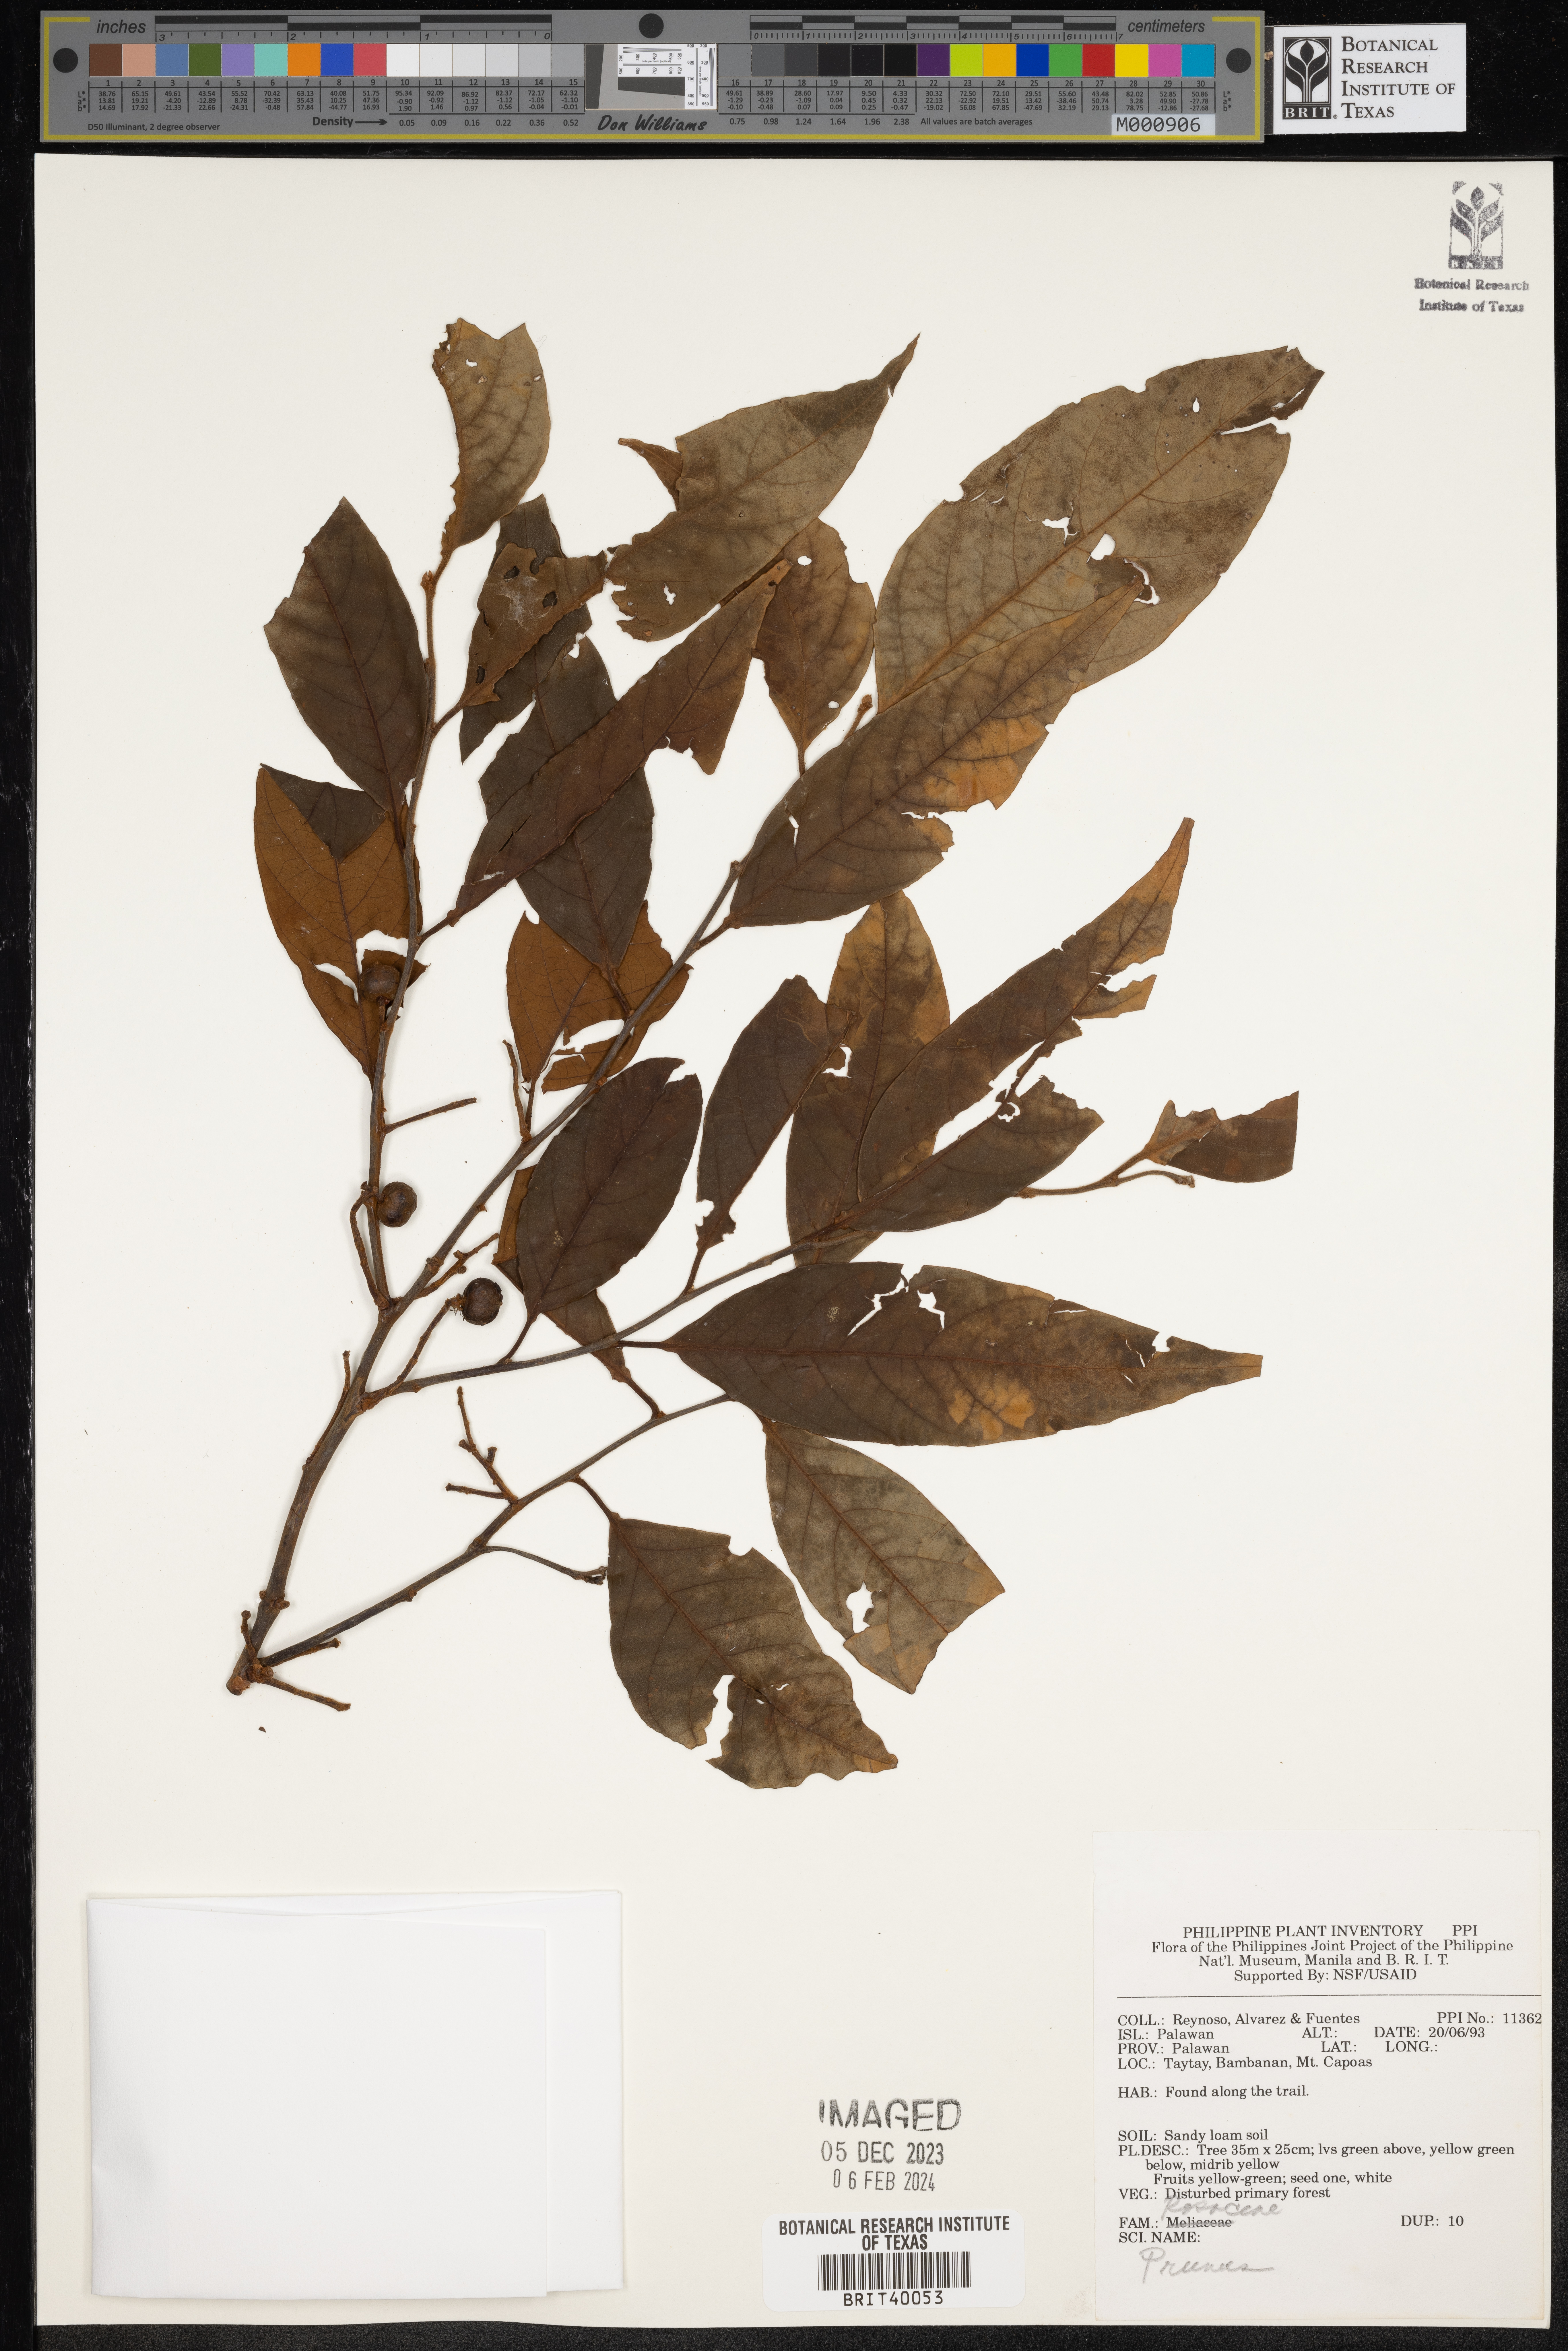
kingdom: Plantae
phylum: Tracheophyta
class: Magnoliopsida
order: Rosales
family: Rosaceae
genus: Prunus
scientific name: Prunus
